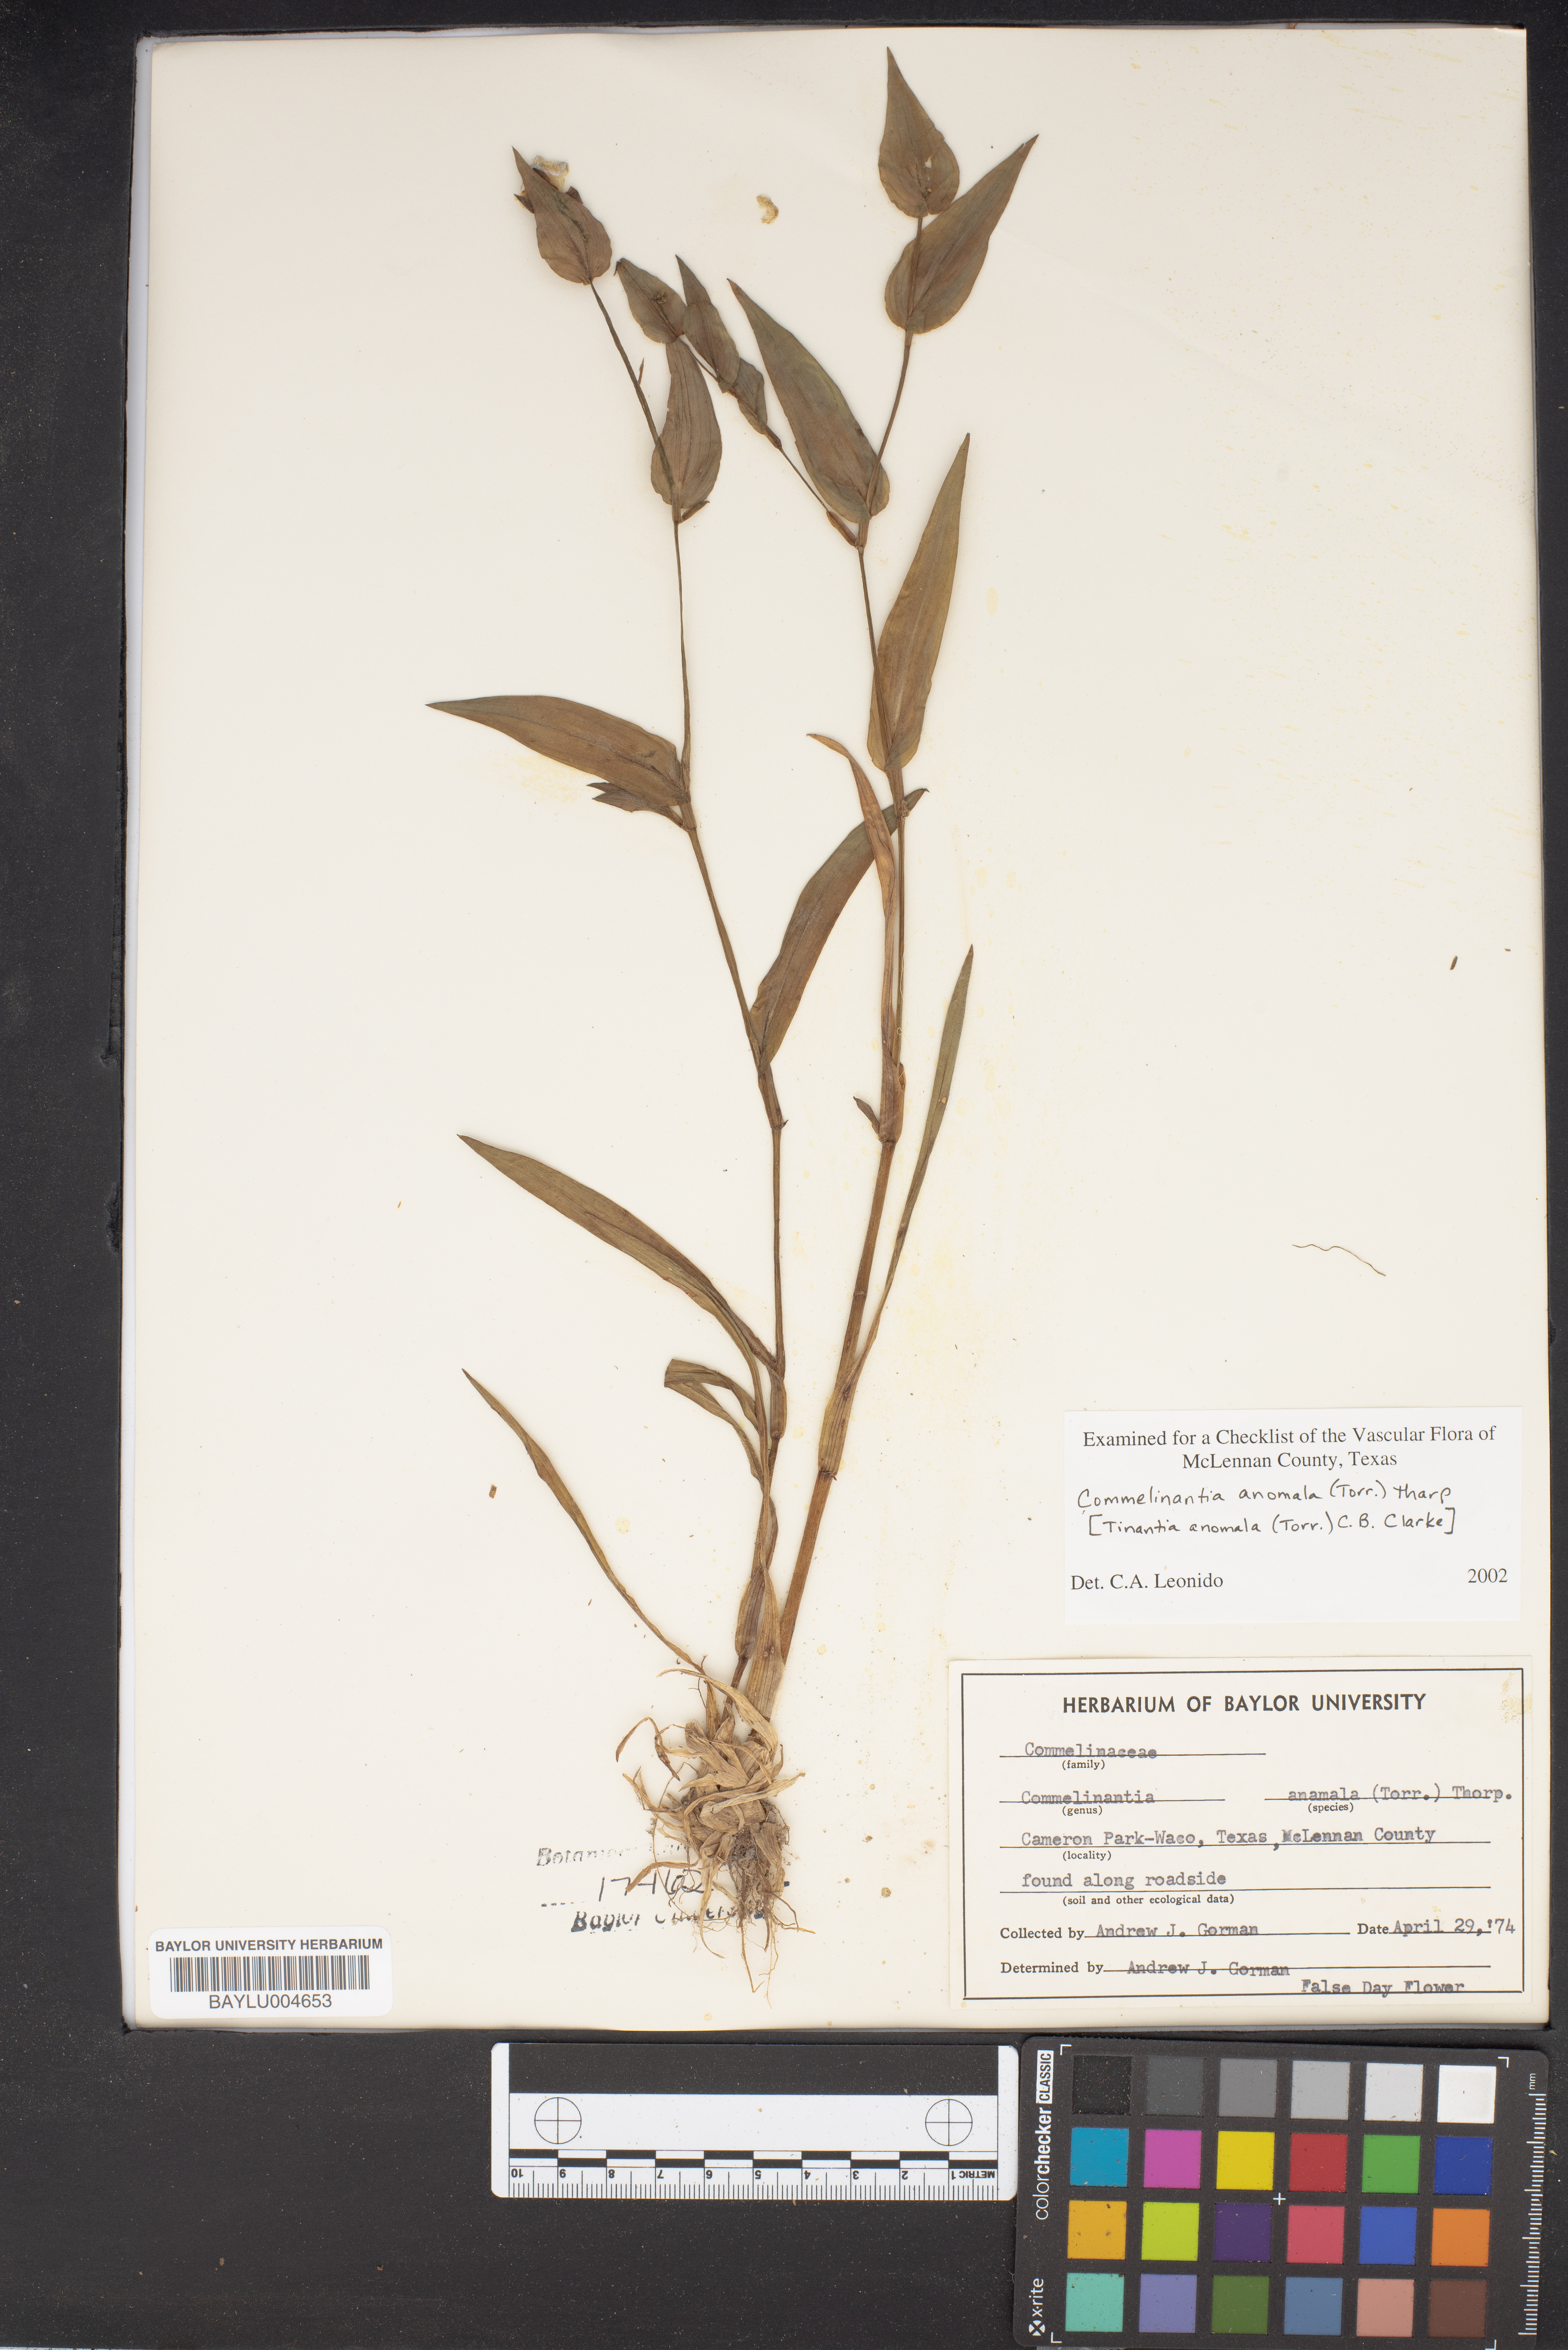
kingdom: Plantae
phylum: Tracheophyta
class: Liliopsida
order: Commelinales
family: Commelinaceae
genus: Tinantia
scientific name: Tinantia anomala
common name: False dayflower
